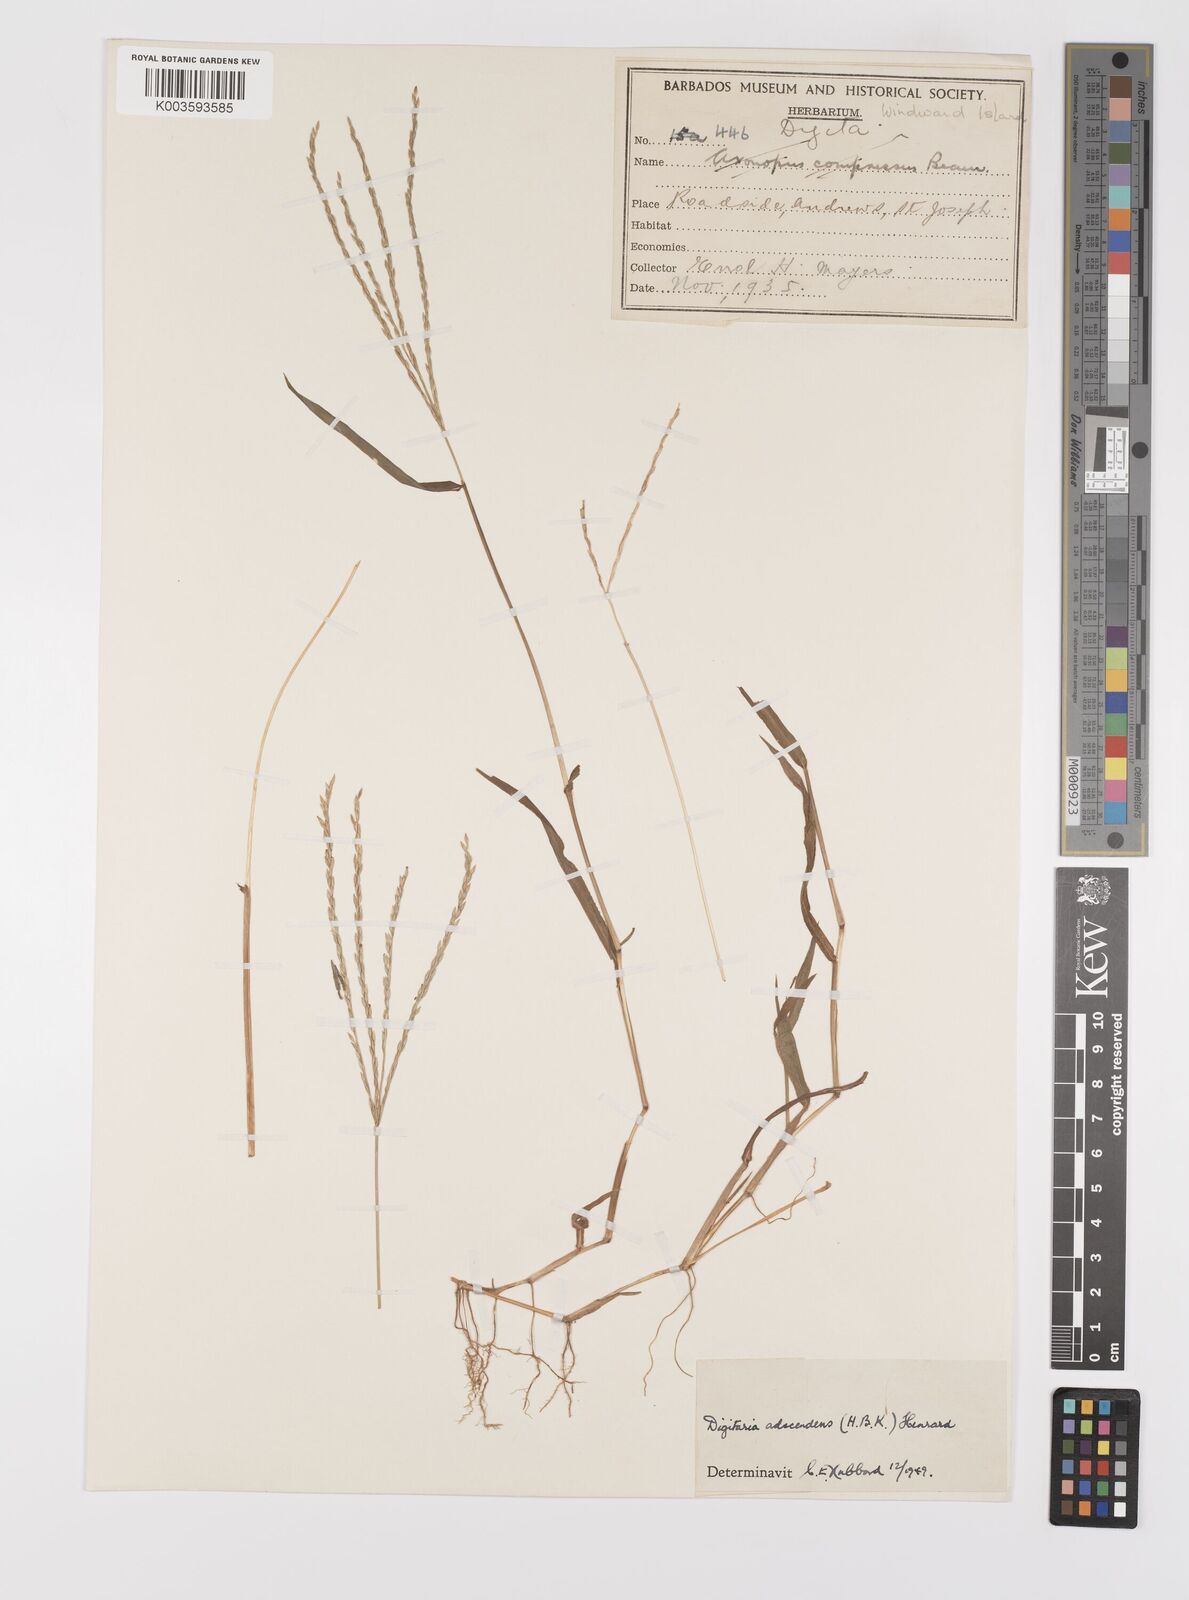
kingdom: Plantae
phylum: Tracheophyta
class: Liliopsida
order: Poales
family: Poaceae
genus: Digitaria
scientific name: Digitaria ciliaris
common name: Tropical finger-grass
